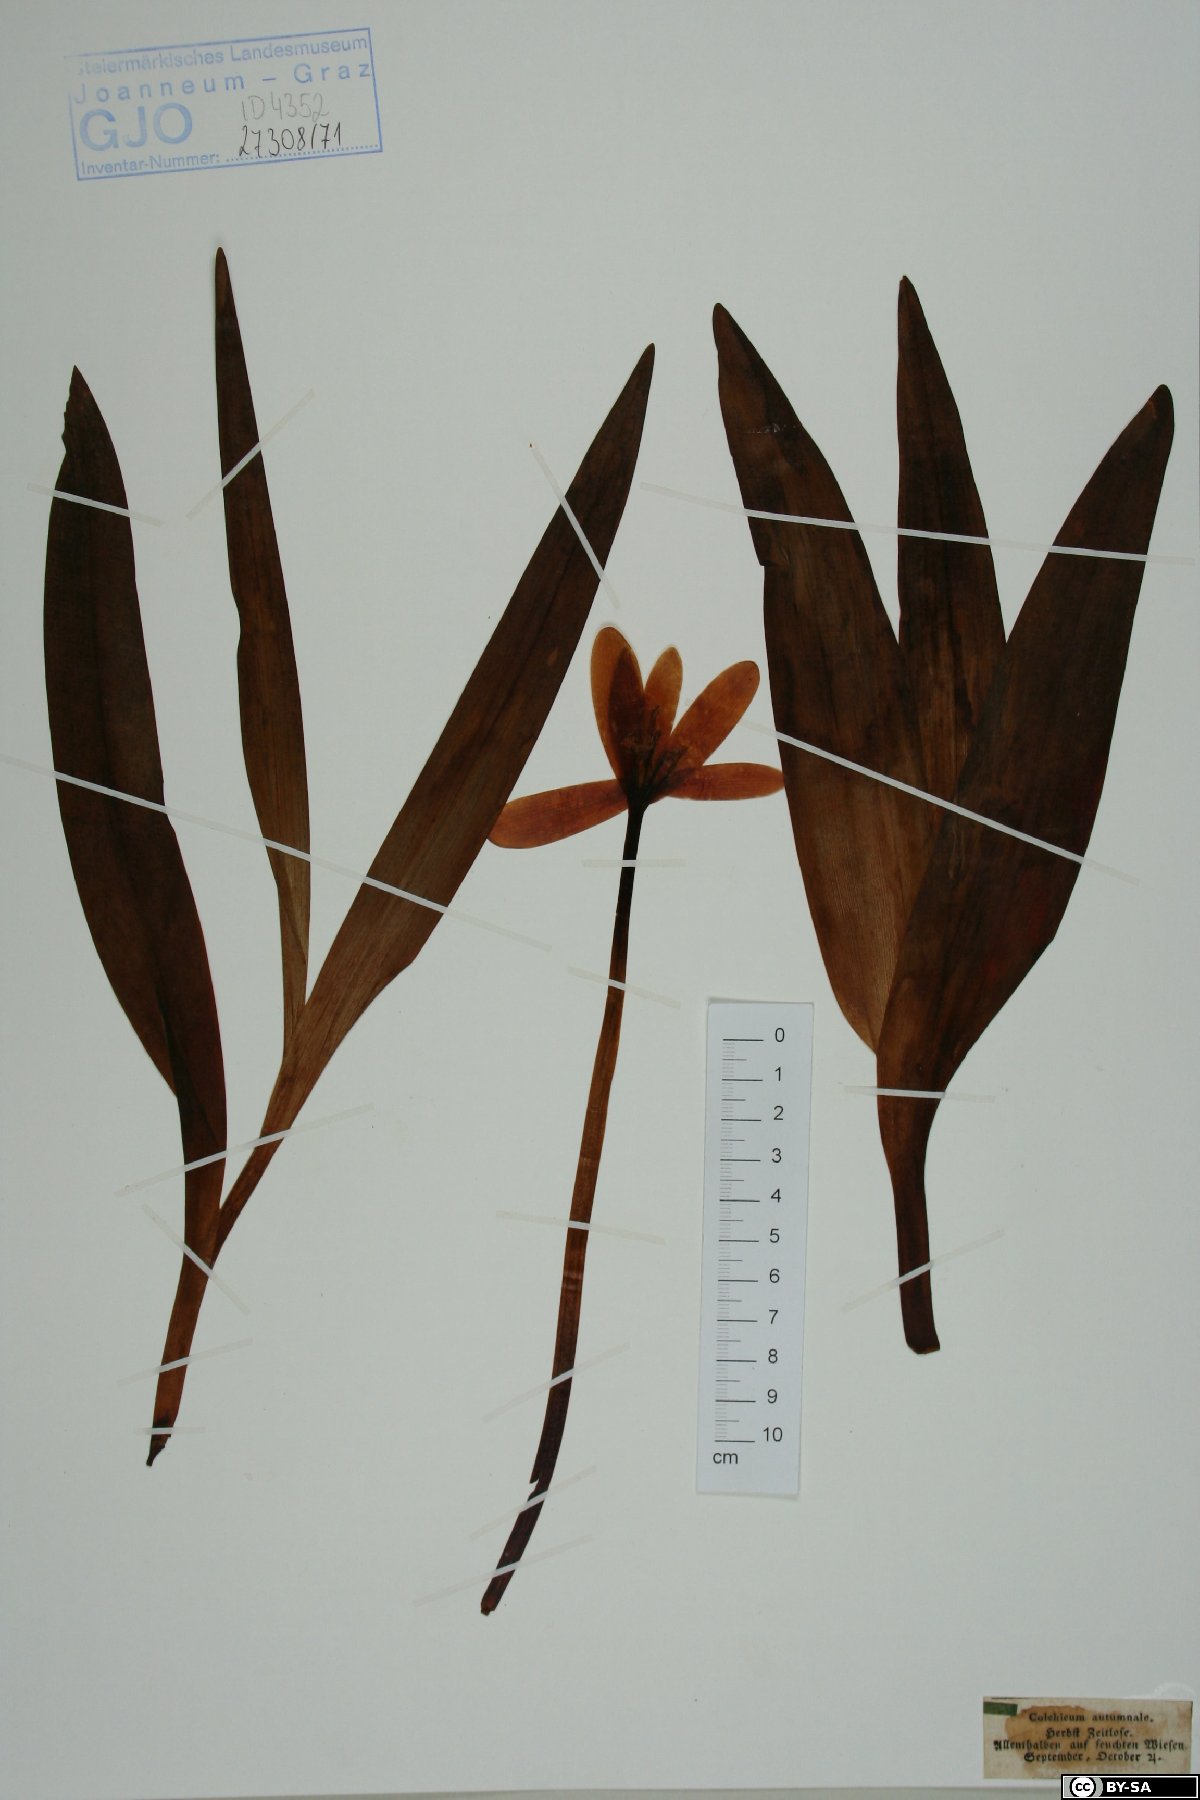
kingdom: Plantae
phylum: Tracheophyta
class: Liliopsida
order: Liliales
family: Colchicaceae
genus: Colchicum
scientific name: Colchicum autumnale
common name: Autumn crocus
